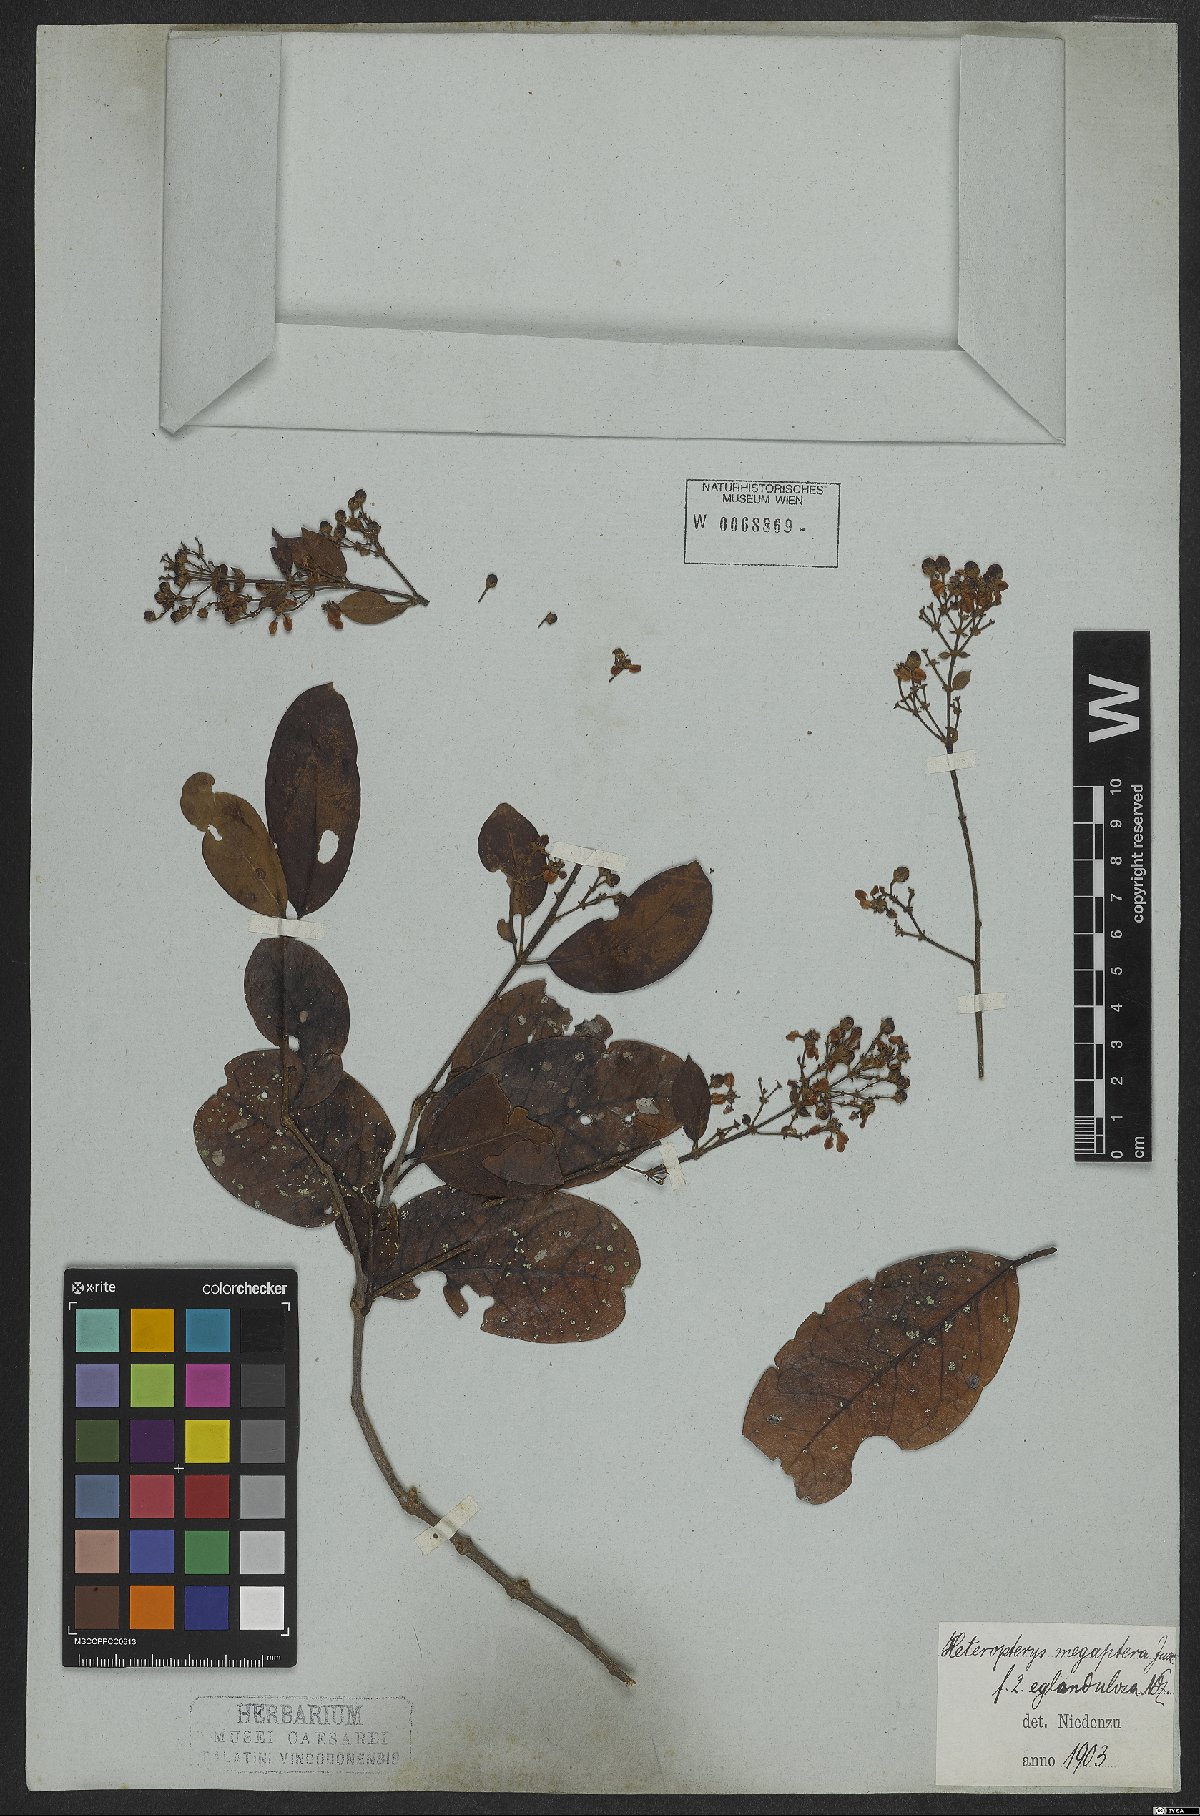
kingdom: Plantae
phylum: Tracheophyta
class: Magnoliopsida
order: Malpighiales
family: Malpighiaceae
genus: Heteropterys
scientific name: Heteropterys megaptera
